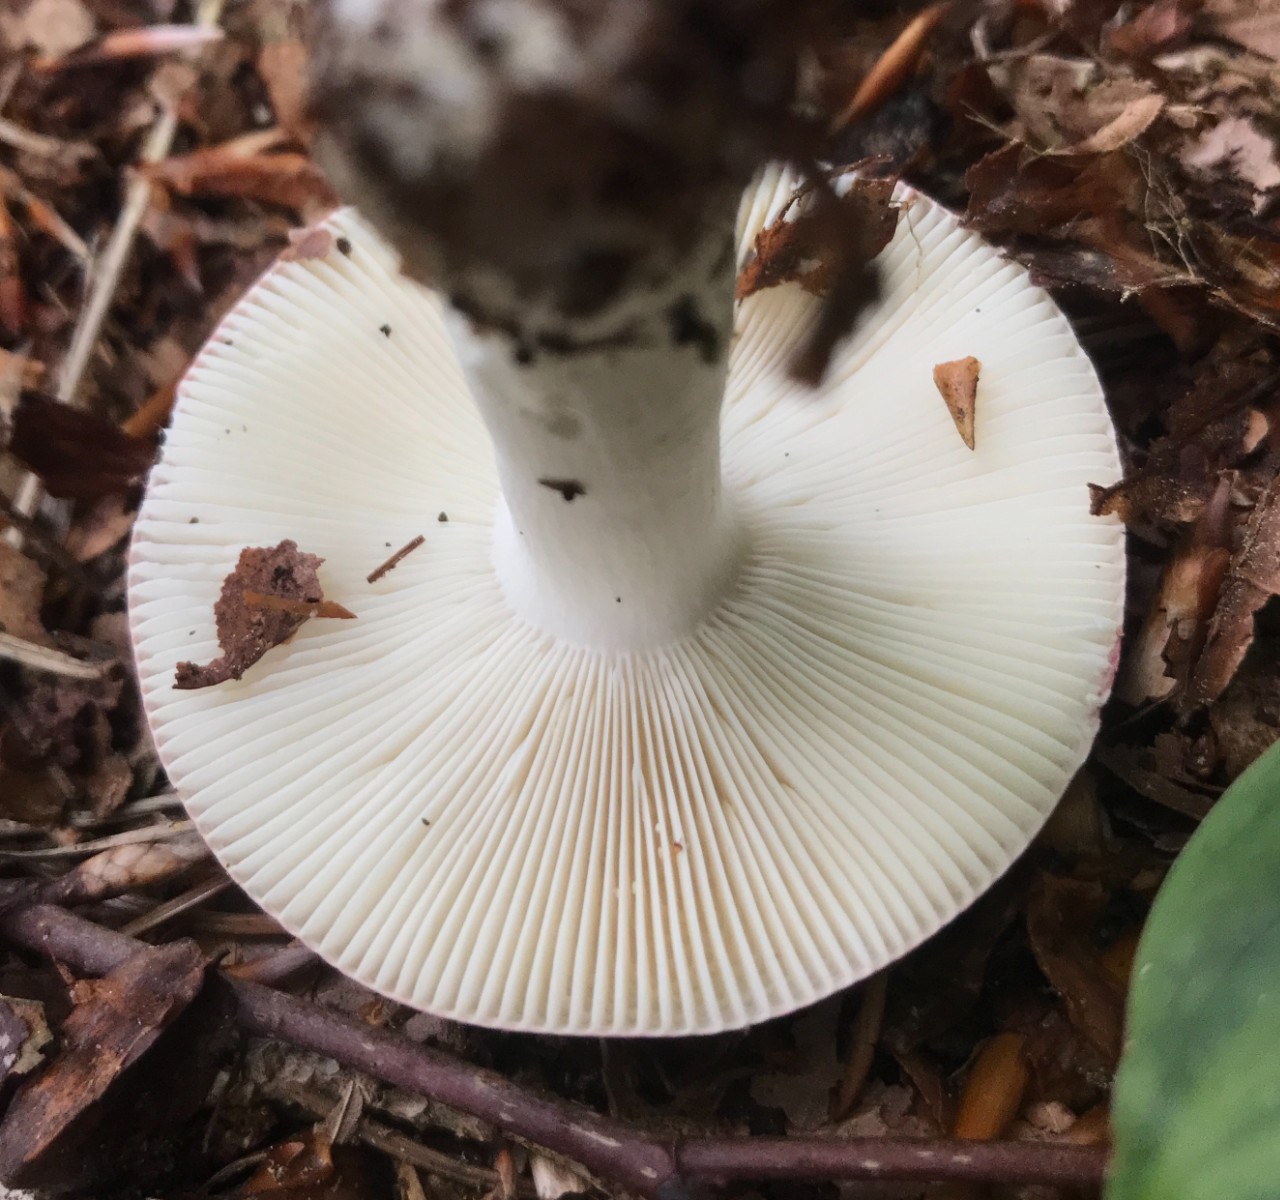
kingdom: Fungi
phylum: Basidiomycota
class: Agaricomycetes
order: Russulales
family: Russulaceae
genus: Russula
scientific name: Russula cyanoxantha
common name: broget skørhat
